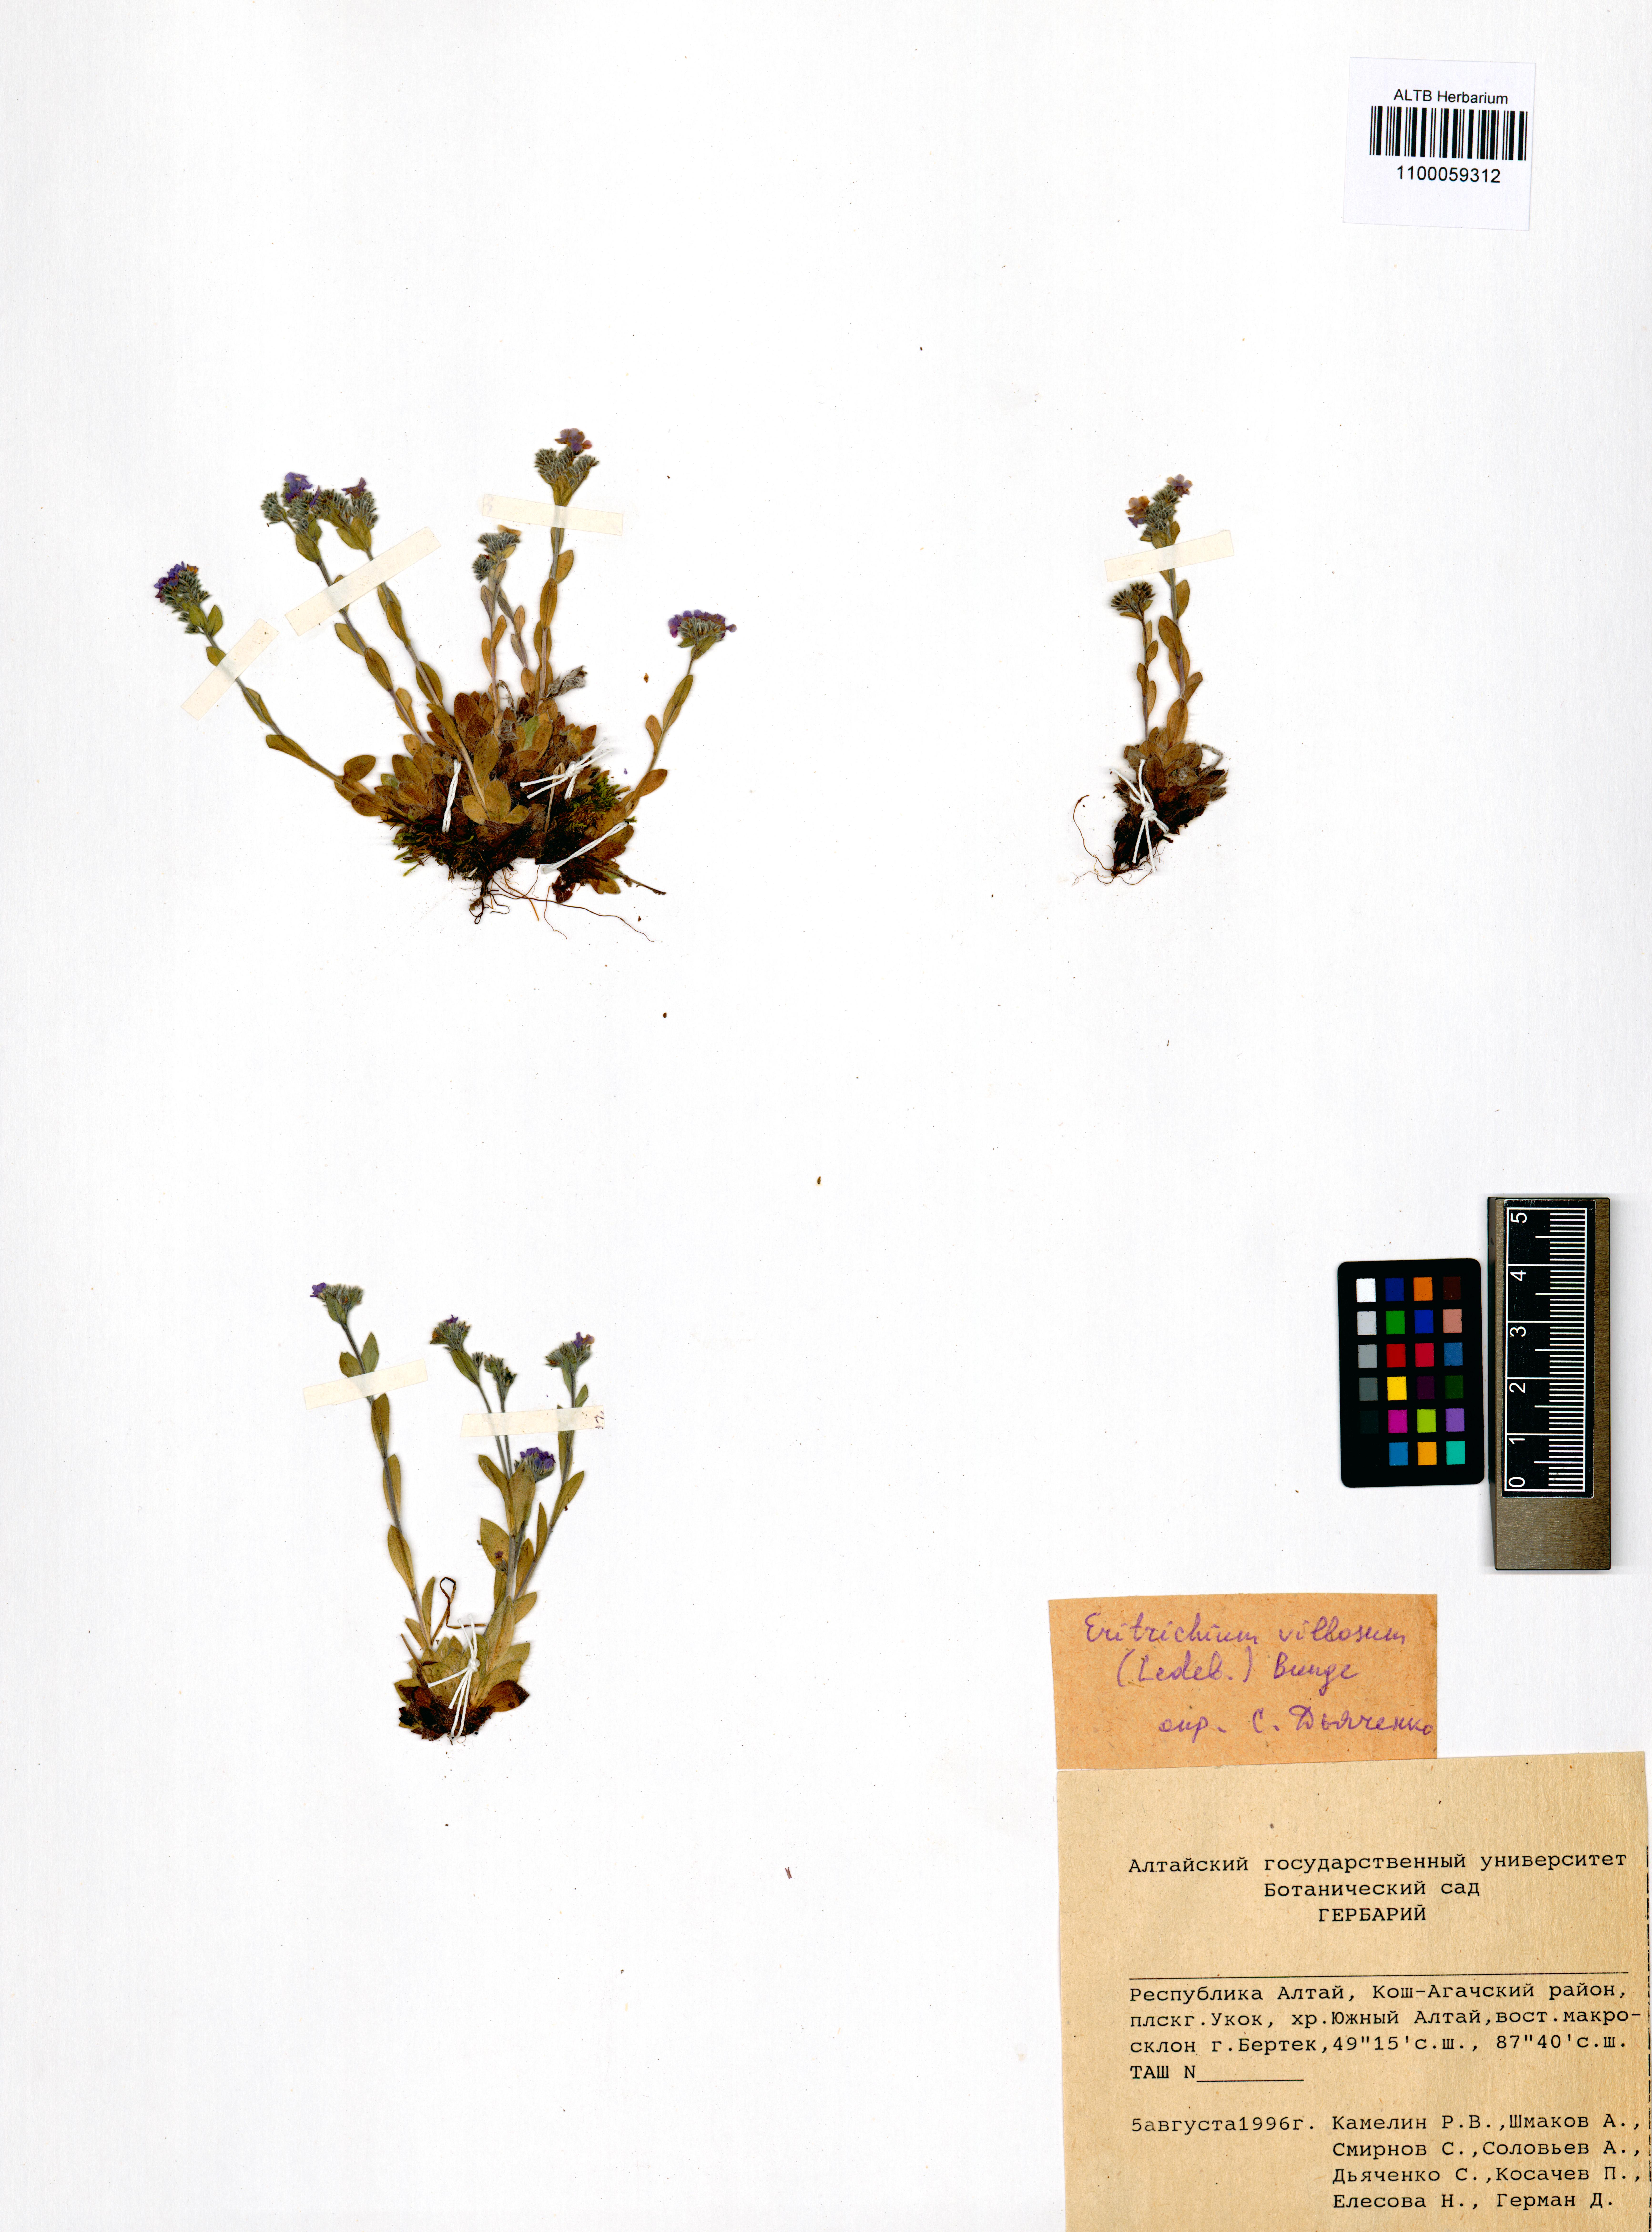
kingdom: Plantae
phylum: Tracheophyta
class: Magnoliopsida
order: Boraginales
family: Boraginaceae
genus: Eritrichium
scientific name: Eritrichium villosum
